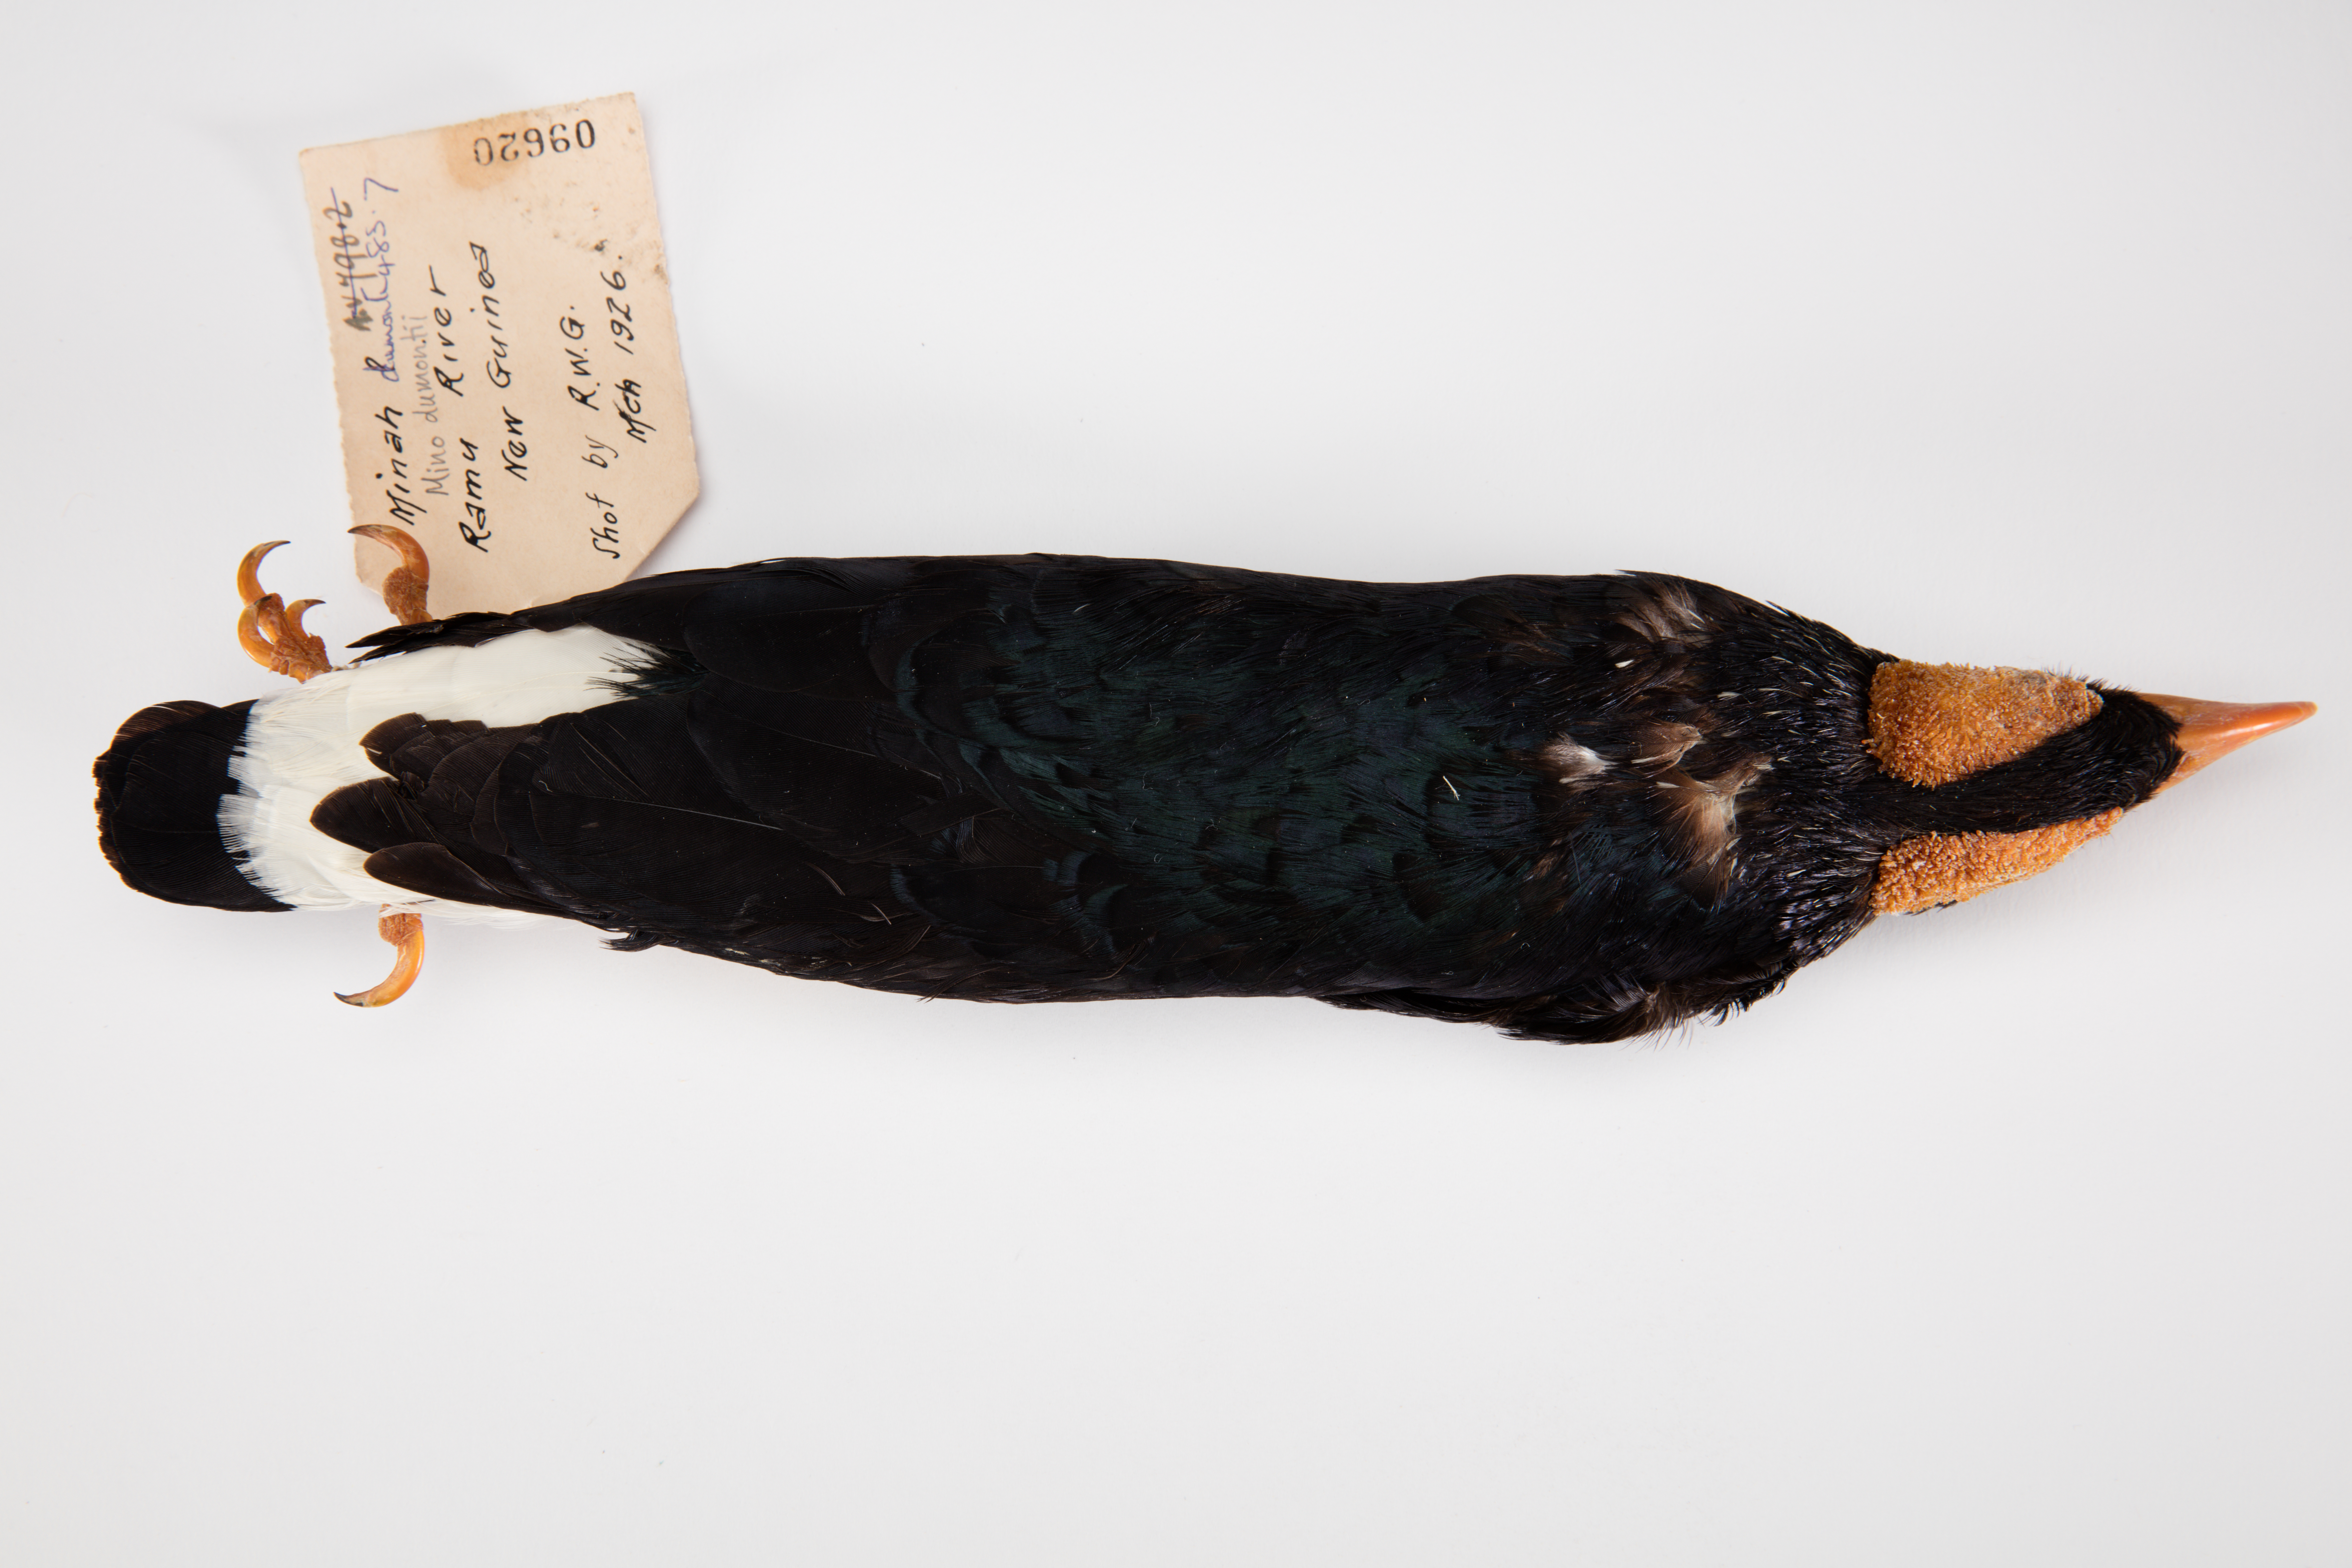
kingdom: Animalia
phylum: Chordata
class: Aves
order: Passeriformes
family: Sturnidae
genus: Mino
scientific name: Mino dumontii
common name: Yellow-faced myna
